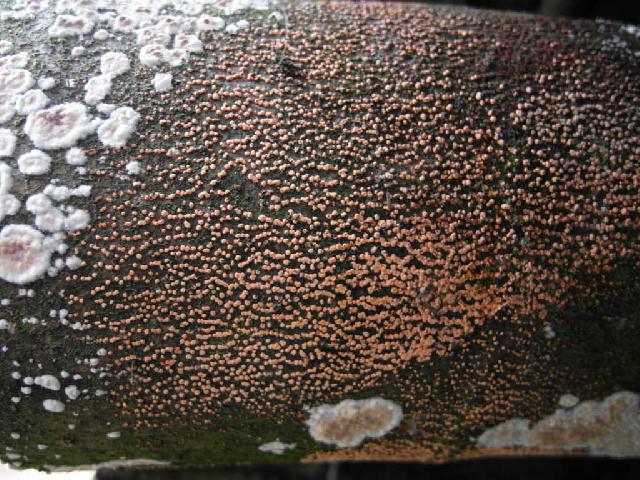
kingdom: Fungi
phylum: Ascomycota
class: Sordariomycetes
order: Hypocreales
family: Nectriaceae
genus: Nectria
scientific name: Nectria cinnabarina
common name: almindelig cinnobersvamp
